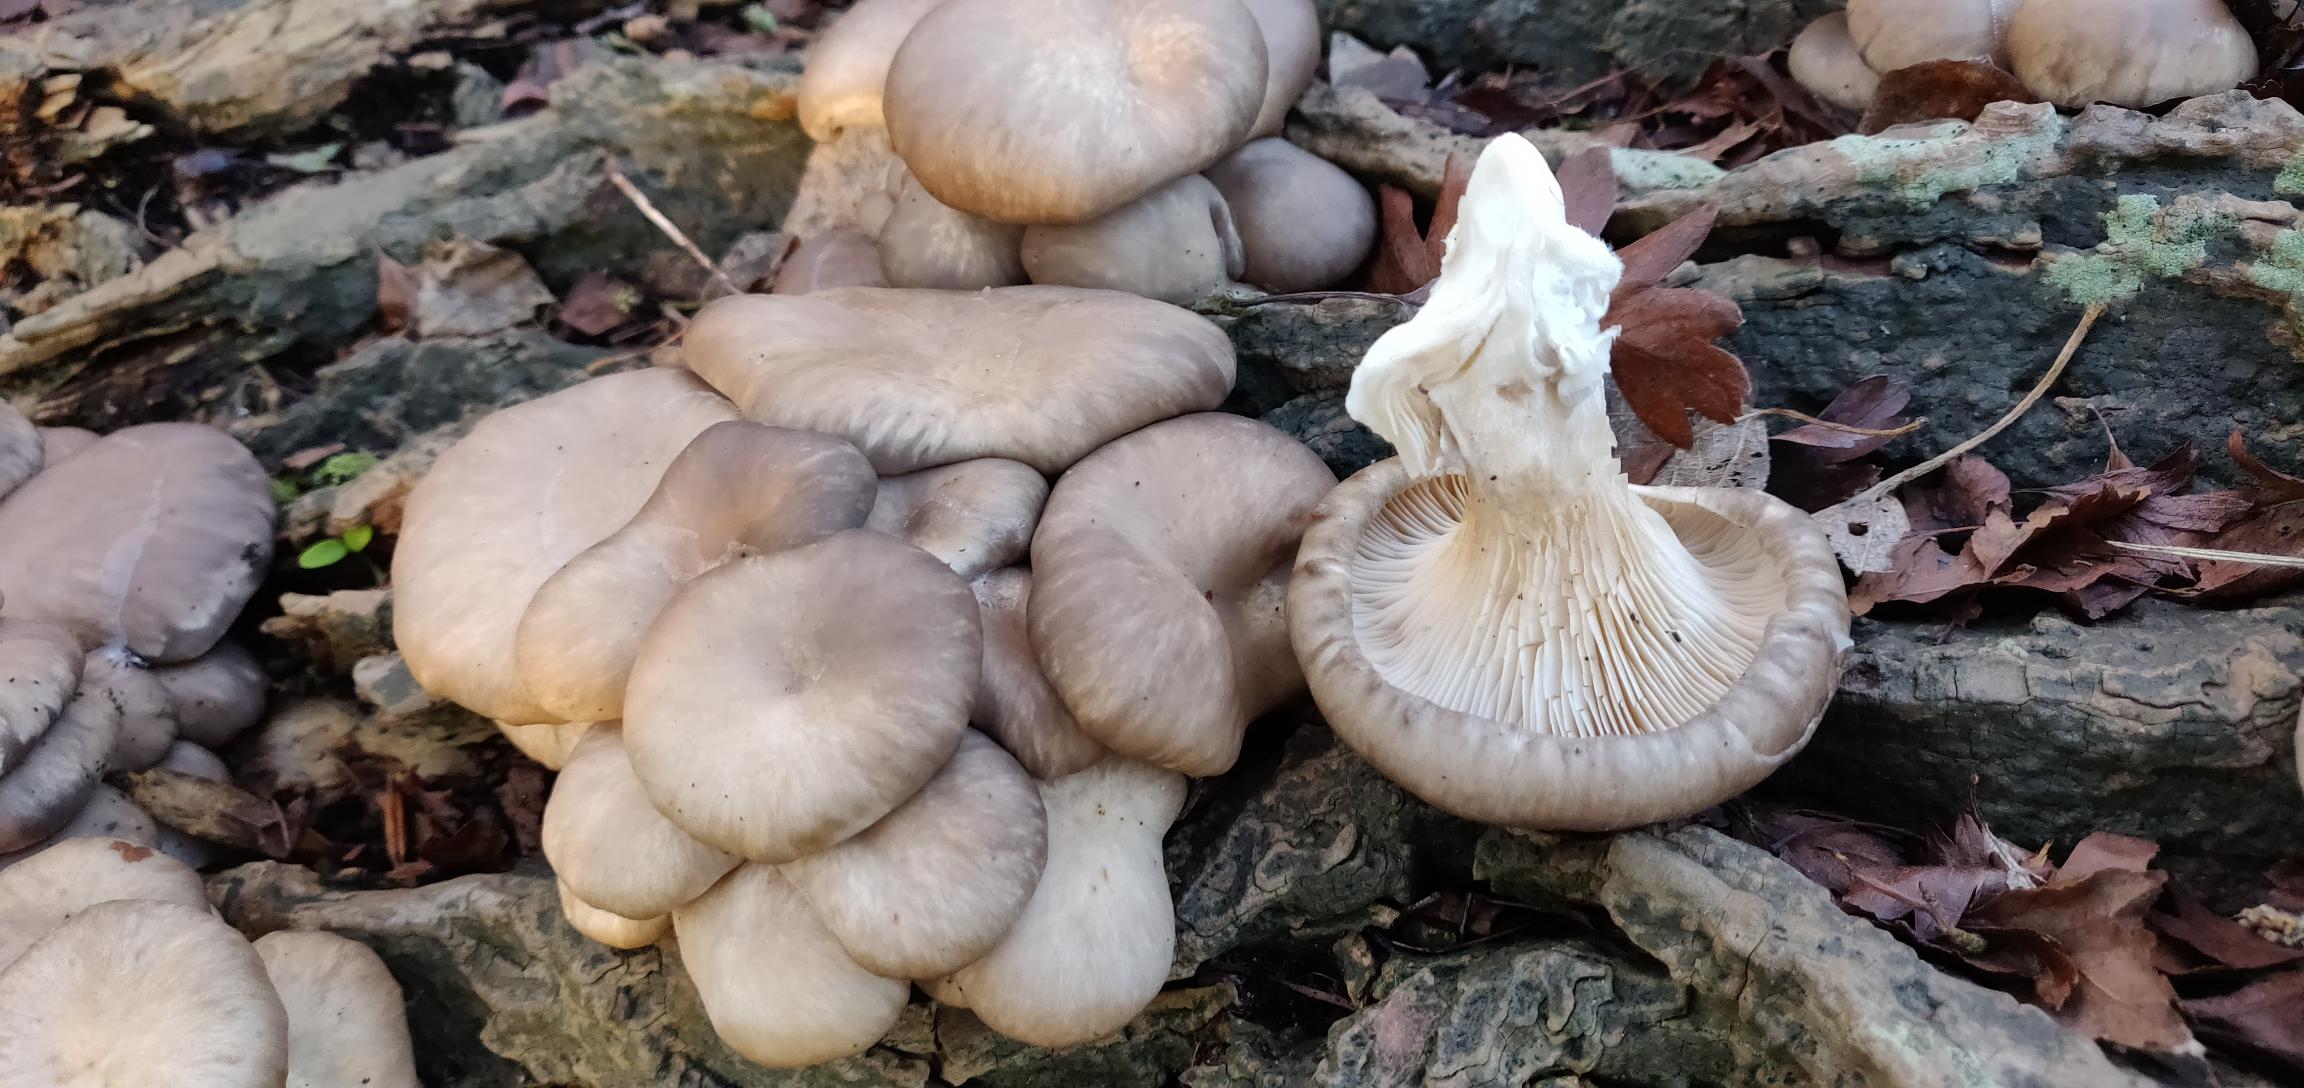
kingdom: Fungi
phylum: Basidiomycota
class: Agaricomycetes
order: Agaricales
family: Pleurotaceae
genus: Pleurotus
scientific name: Pleurotus ostreatus
